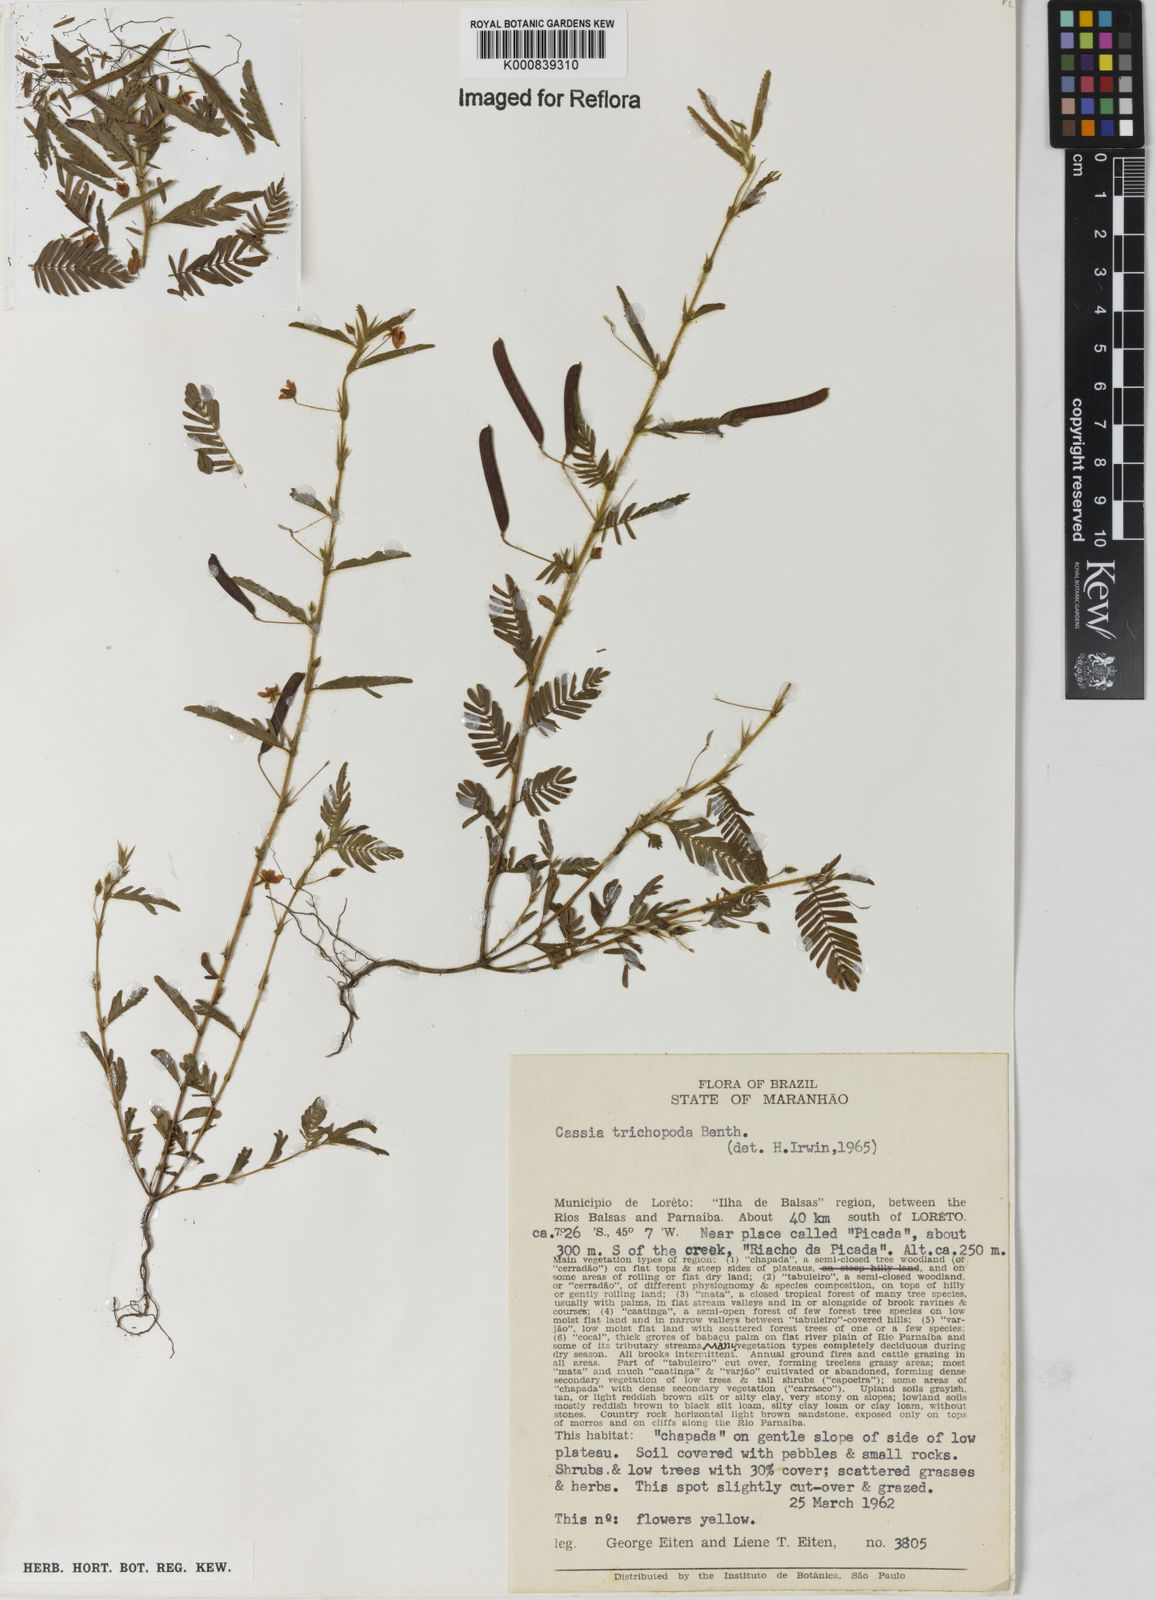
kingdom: Plantae
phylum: Tracheophyta
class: Magnoliopsida
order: Fabales
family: Fabaceae
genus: Chamaecrista
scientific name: Chamaecrista trichopoda
